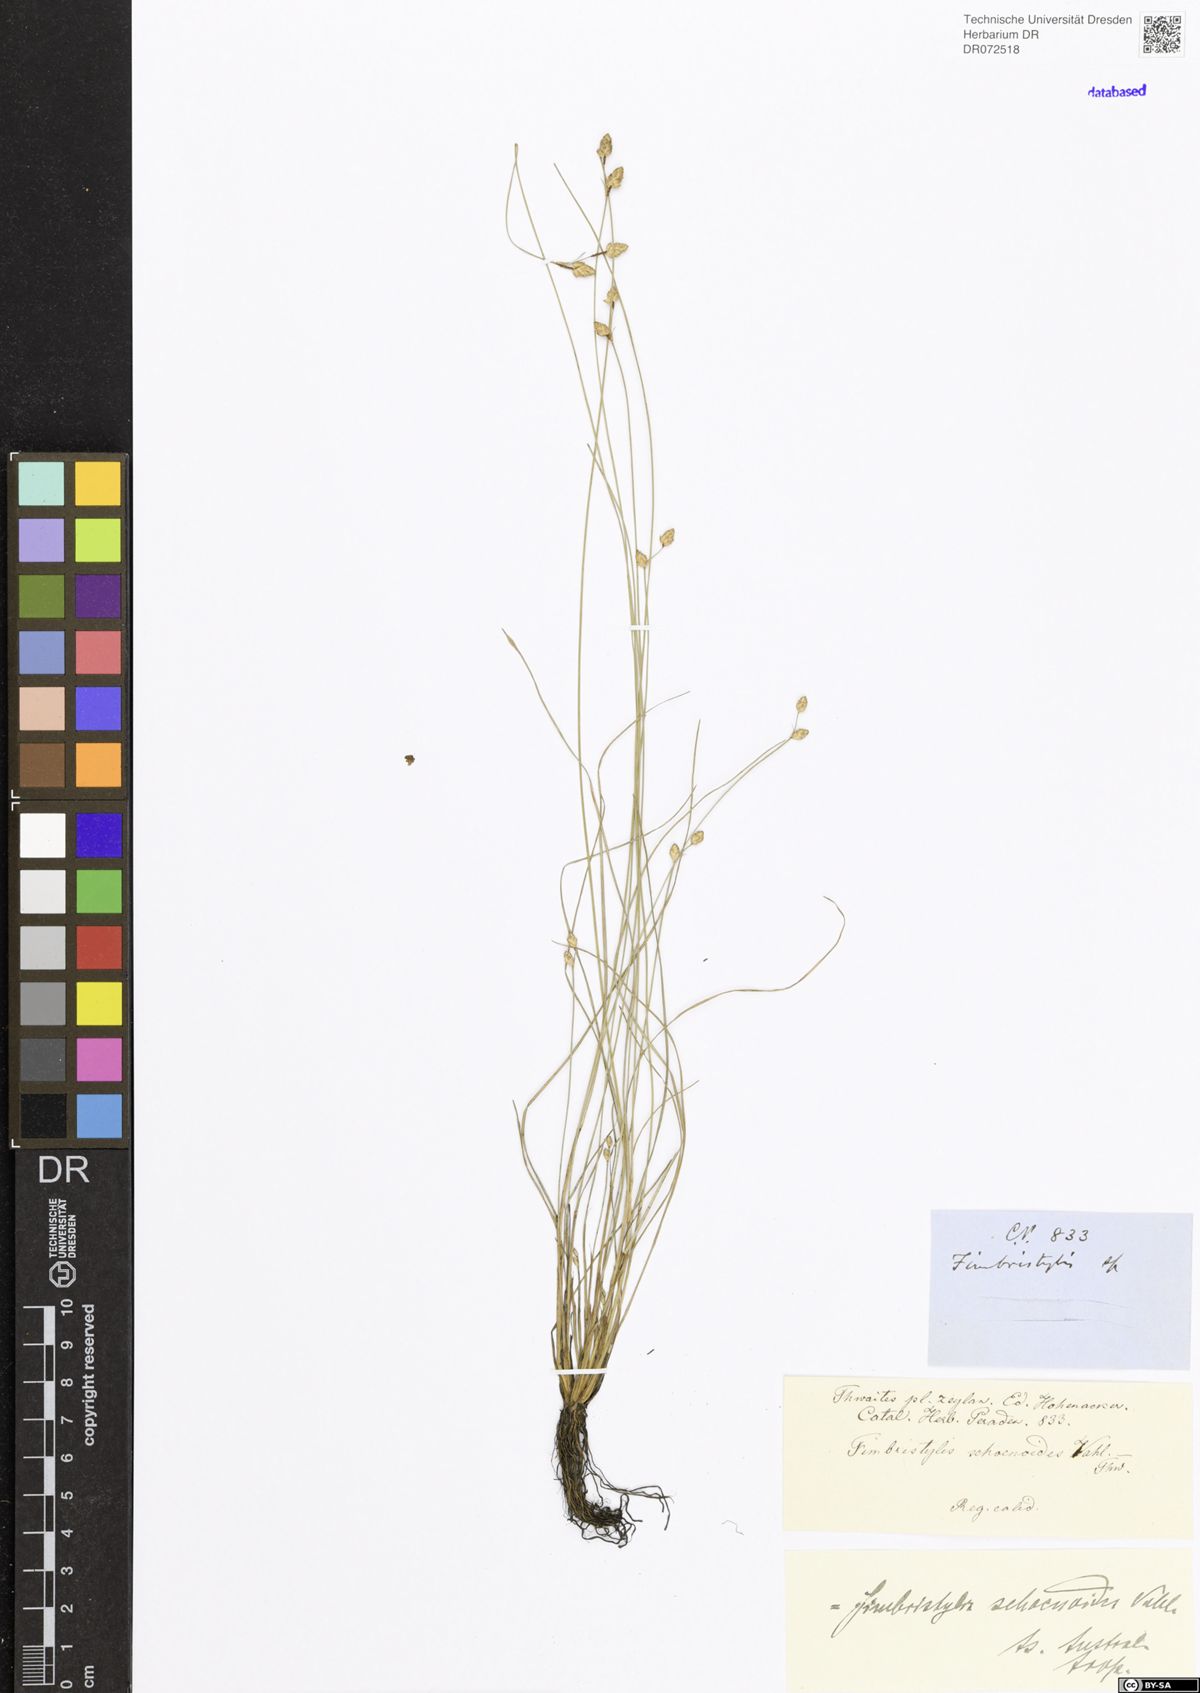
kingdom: Plantae
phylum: Tracheophyta
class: Liliopsida
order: Poales
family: Cyperaceae
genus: Fimbristylis
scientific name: Fimbristylis schoenoides
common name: Ditch fimbry
